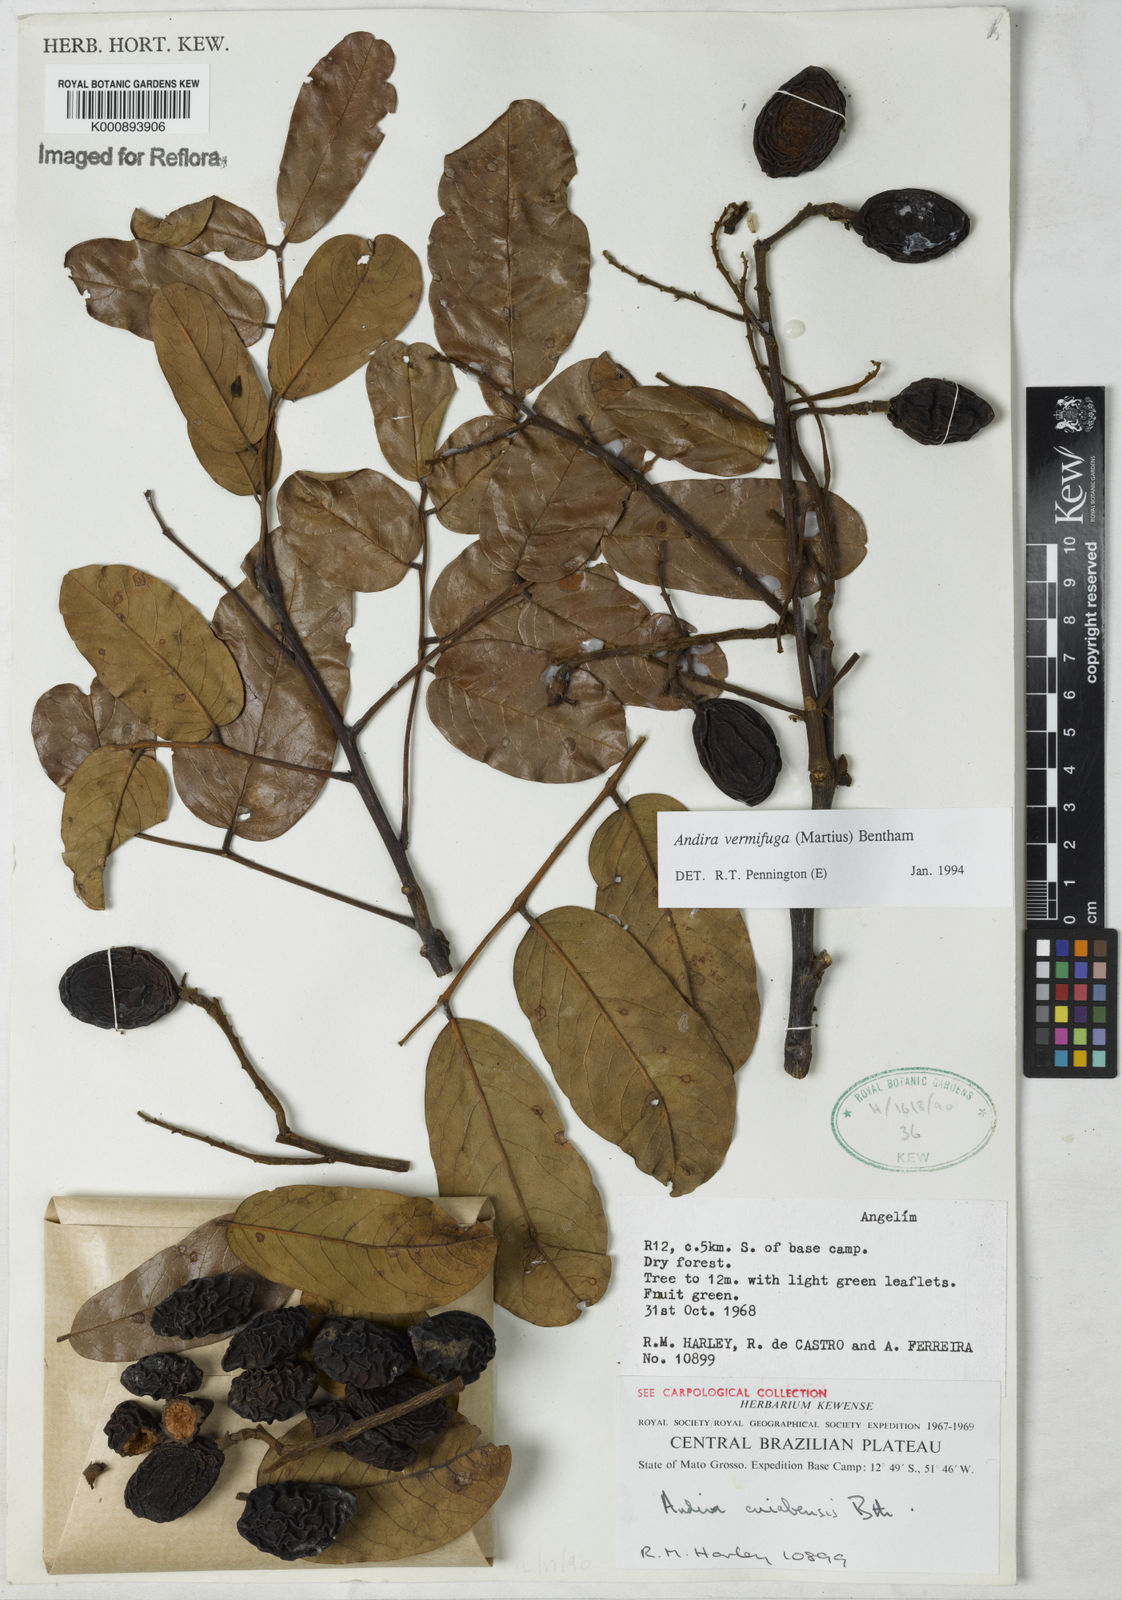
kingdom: Plantae
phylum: Tracheophyta
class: Magnoliopsida
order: Fabales
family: Fabaceae
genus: Andira
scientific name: Andira vermifuga
